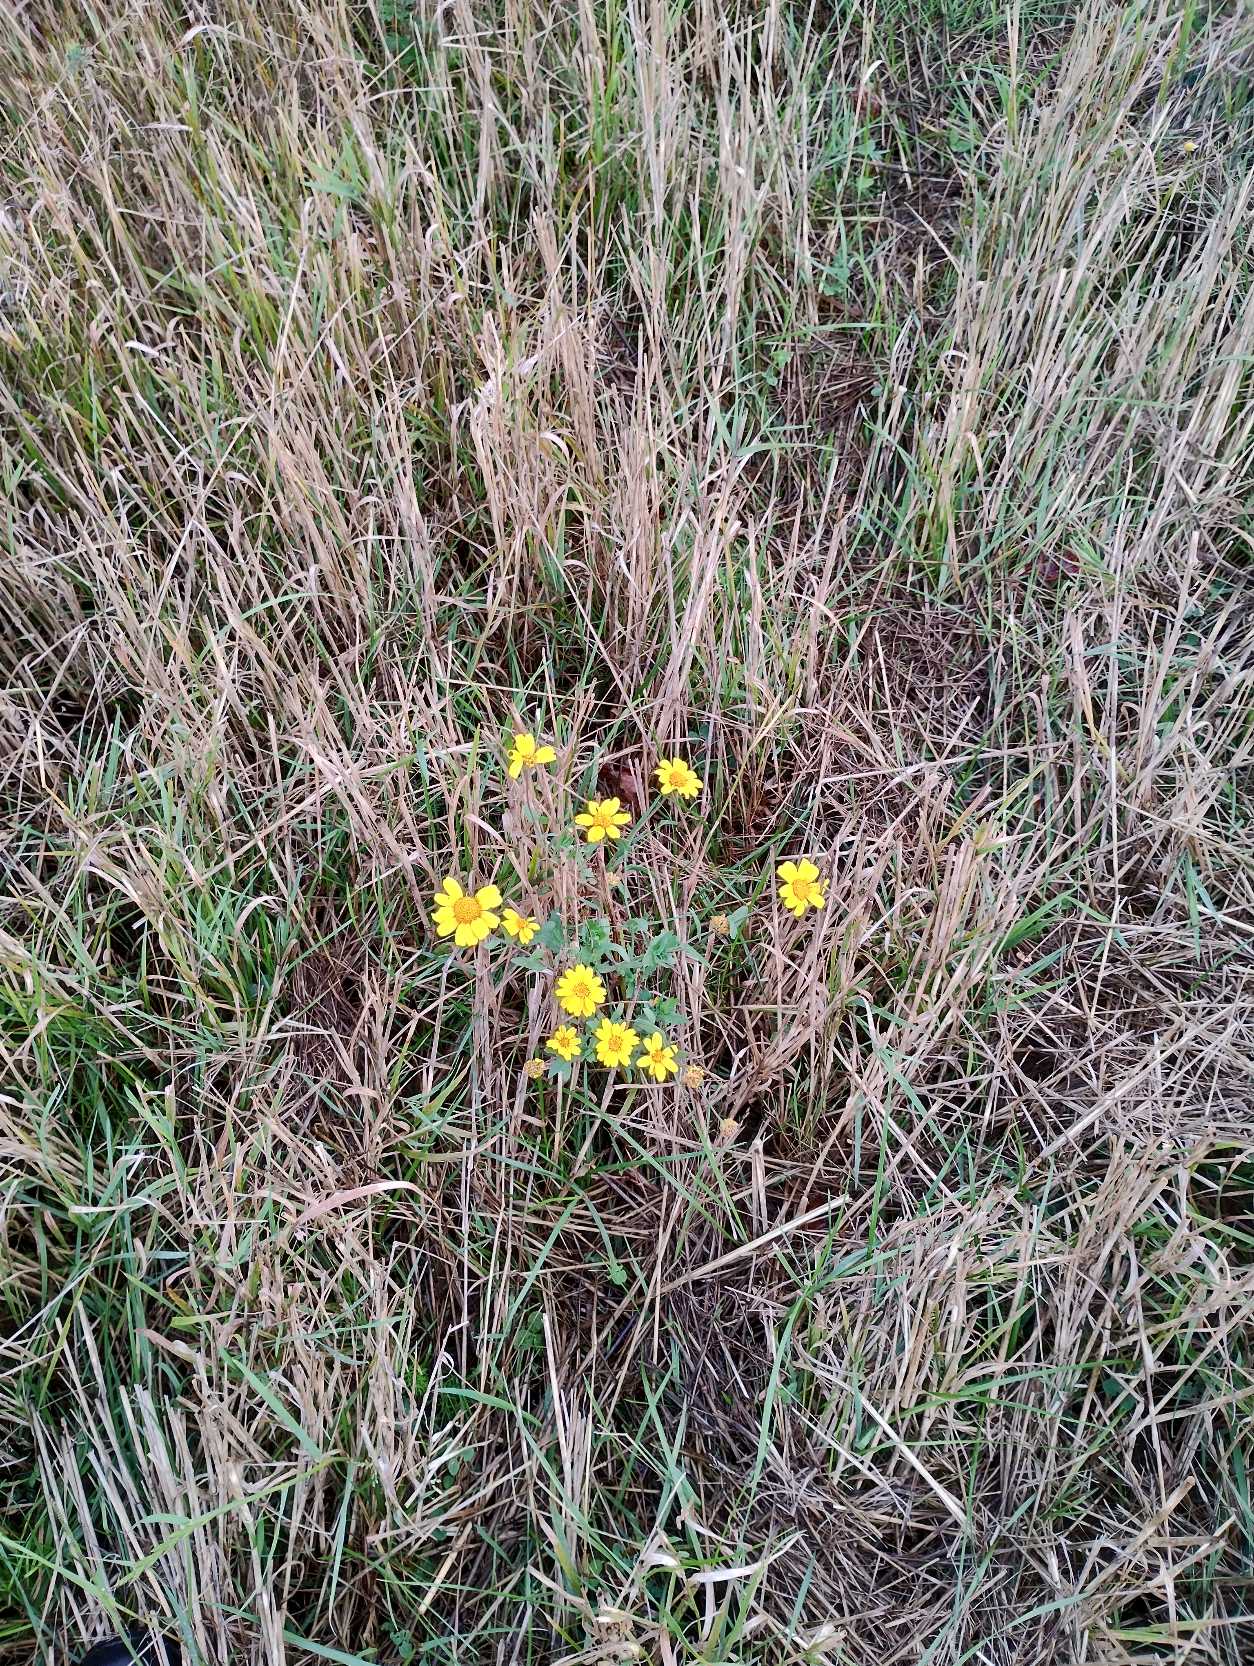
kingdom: Plantae
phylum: Tracheophyta
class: Magnoliopsida
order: Asterales
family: Asteraceae
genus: Glebionis
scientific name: Glebionis segetum
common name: Gul okseøje
